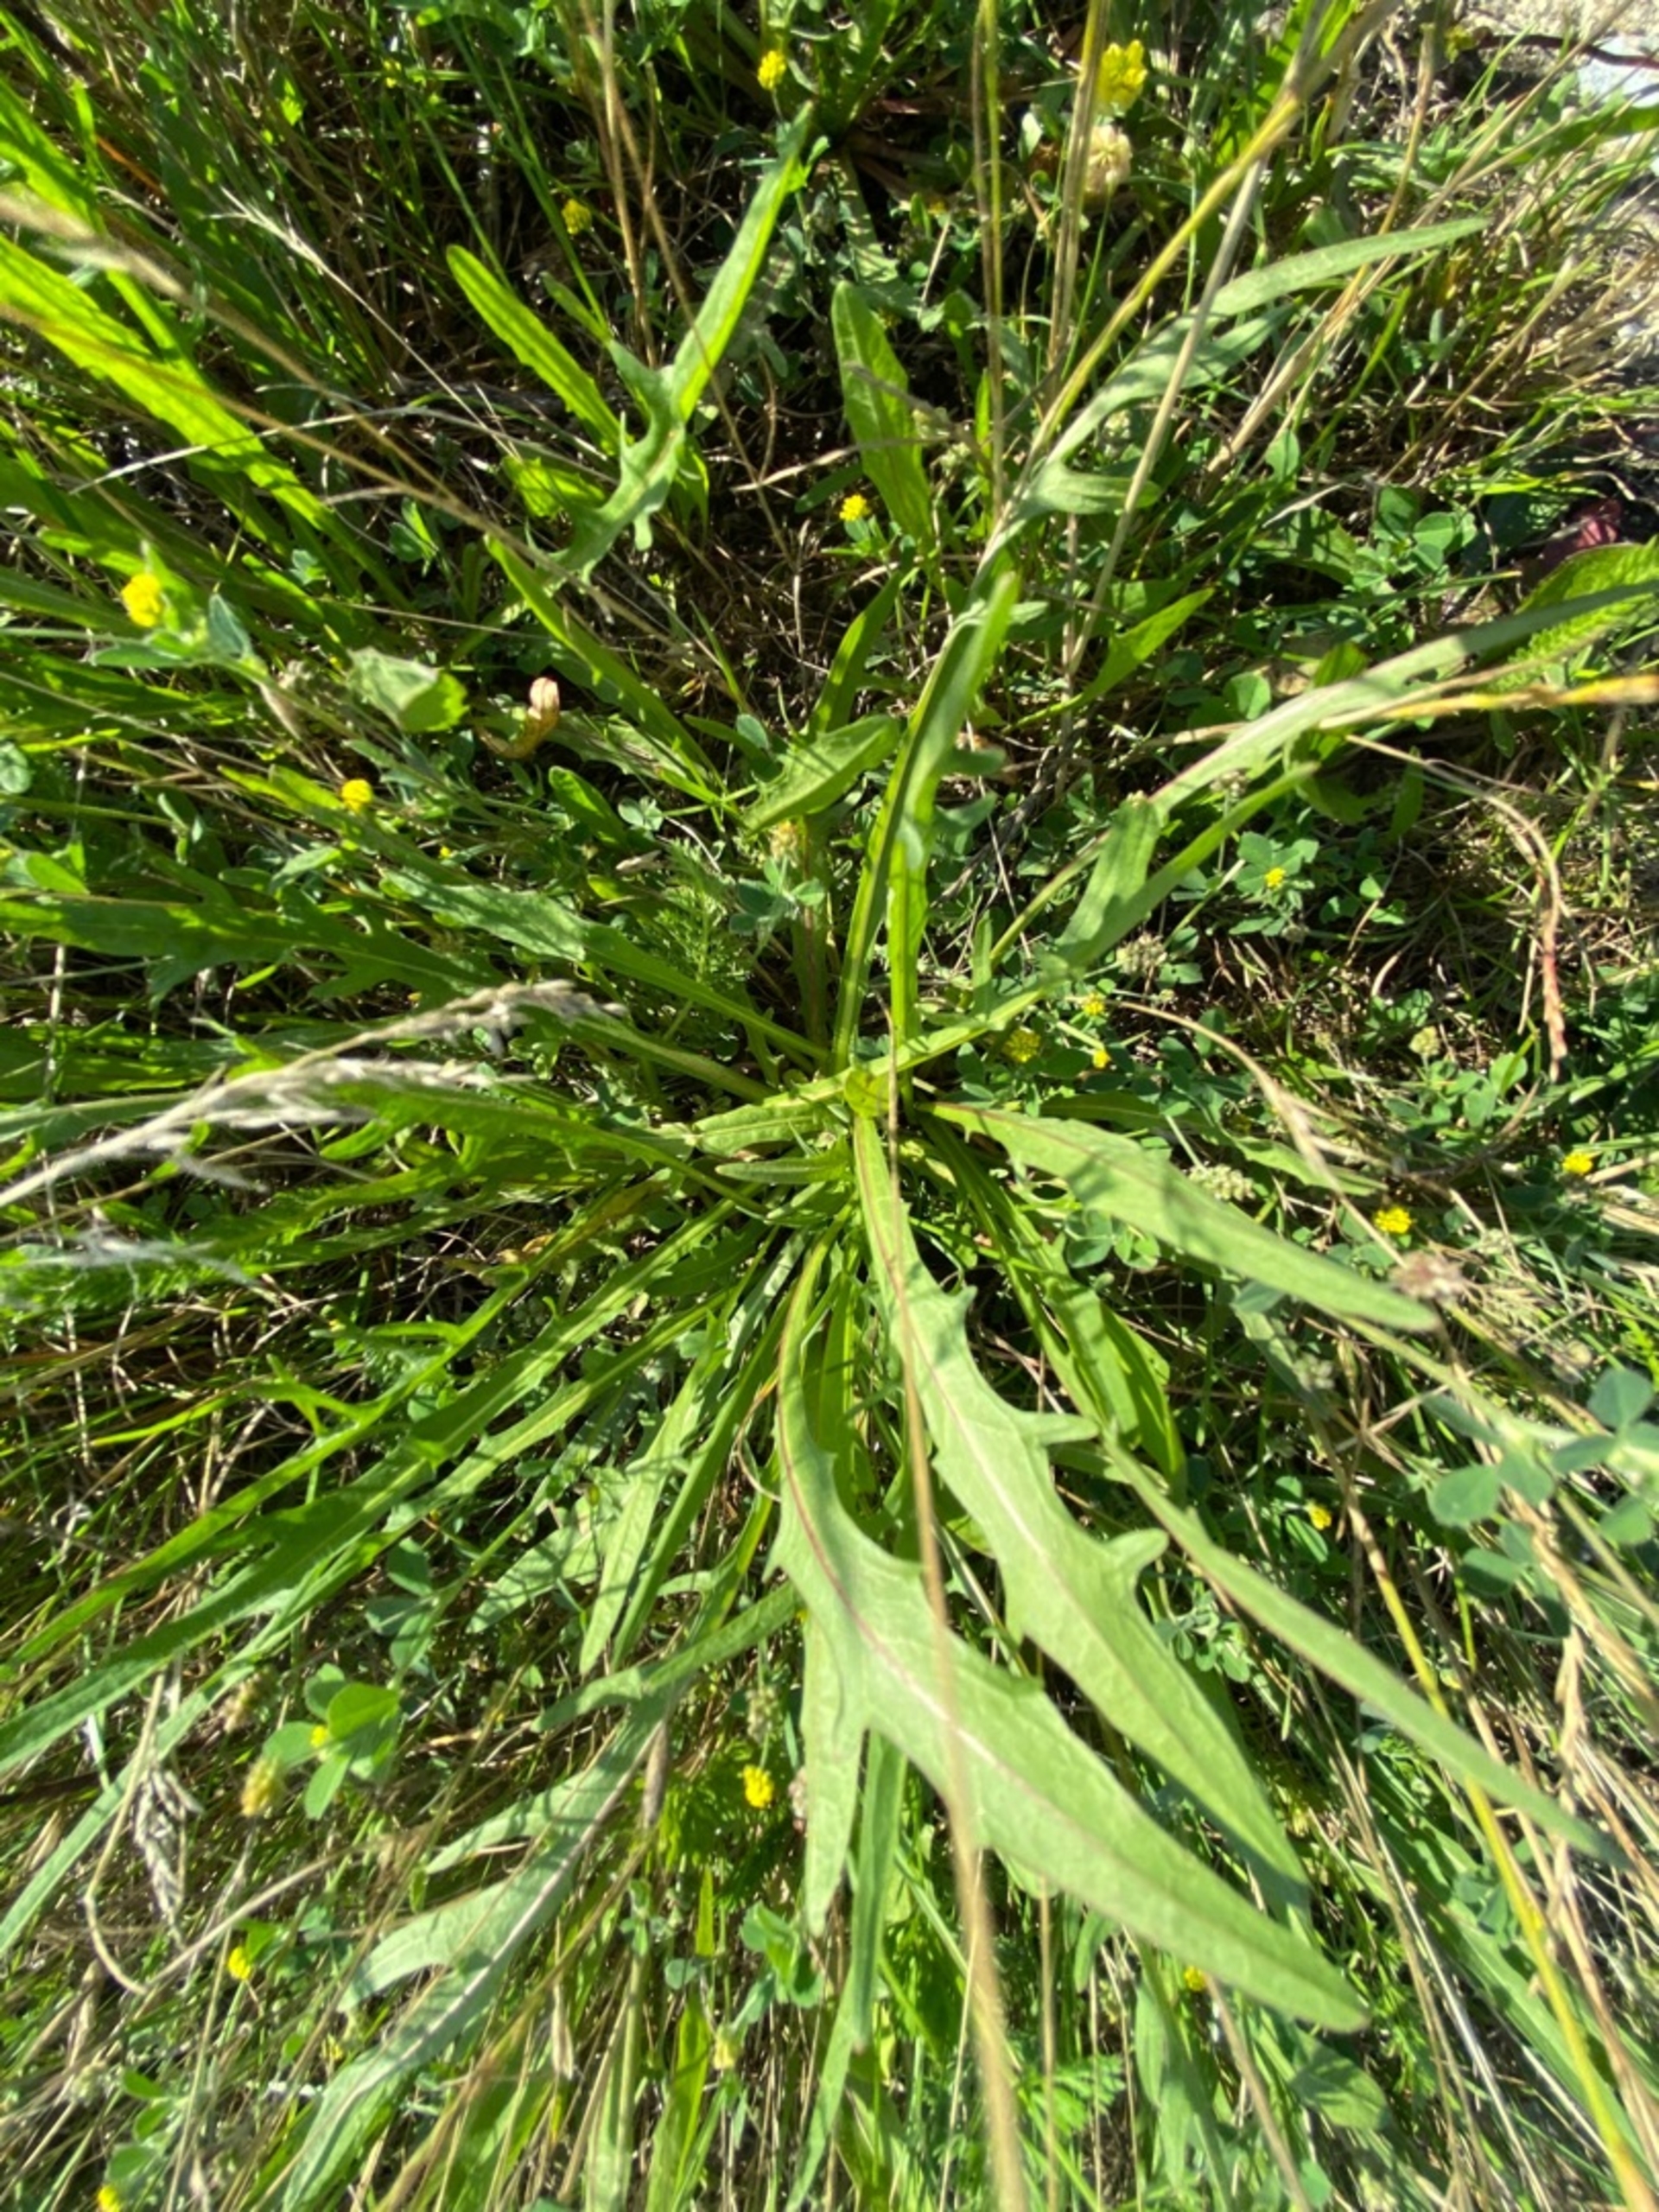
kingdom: Plantae
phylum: Tracheophyta
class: Magnoliopsida
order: Asterales
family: Asteraceae
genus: Scorzoneroides
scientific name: Scorzoneroides autumnalis
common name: Høst-borst
